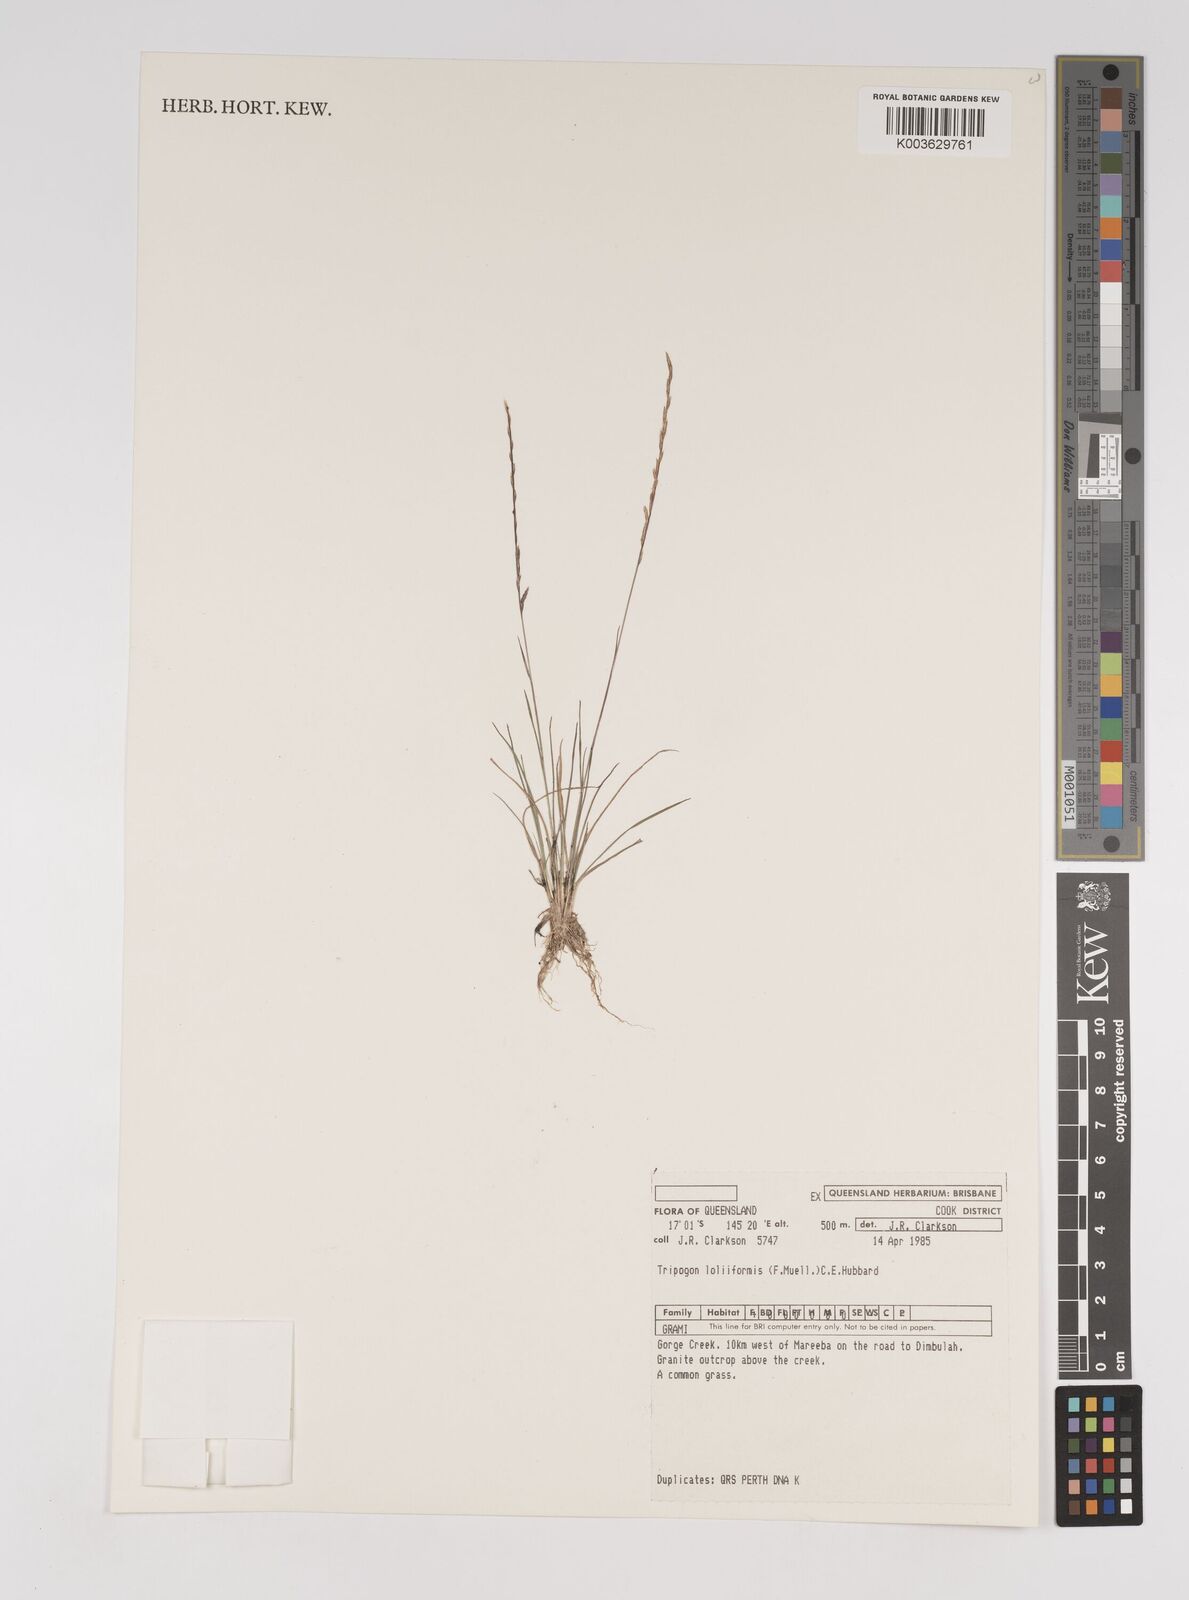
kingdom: Plantae
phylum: Tracheophyta
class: Liliopsida
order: Poales
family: Poaceae
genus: Tripogonella
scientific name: Tripogonella loliiformis
